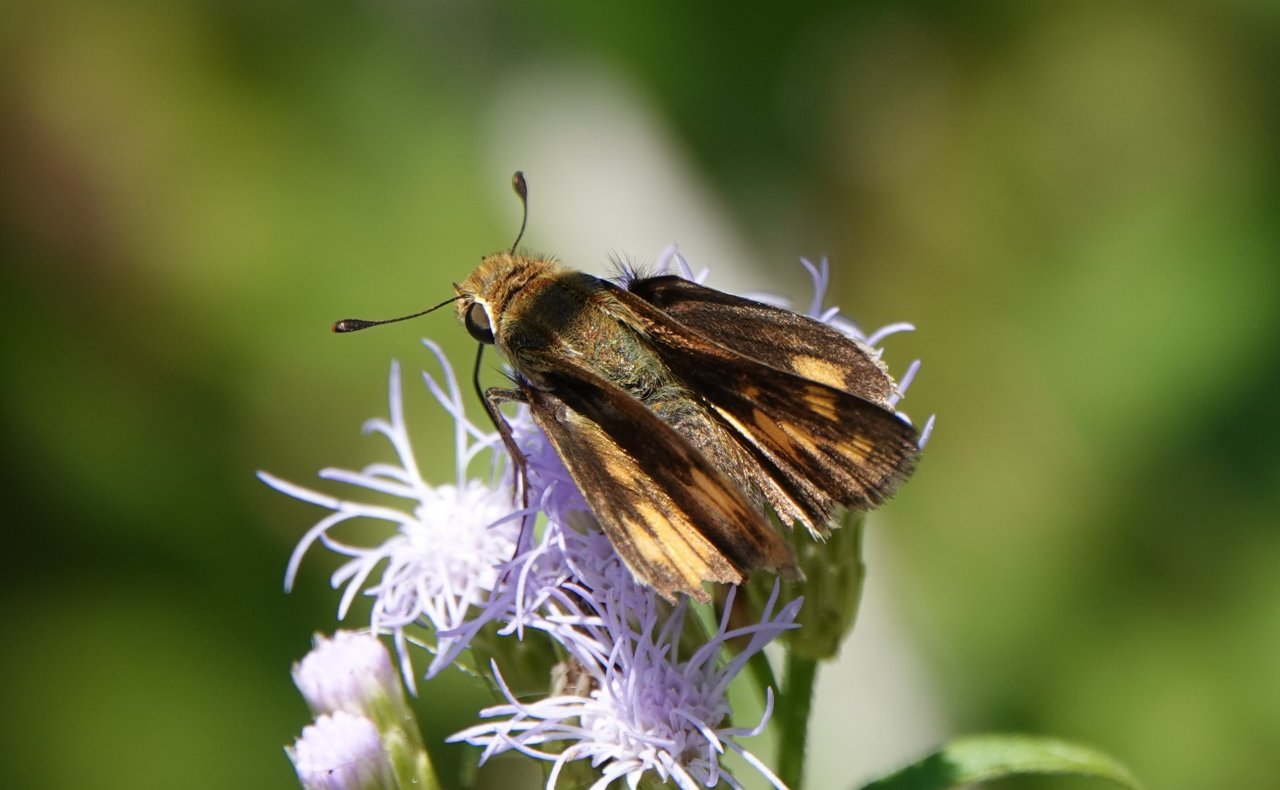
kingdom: Animalia
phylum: Arthropoda
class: Insecta
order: Lepidoptera
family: Hesperiidae
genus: Hylephila
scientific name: Hylephila phyleus
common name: Fiery Skipper
